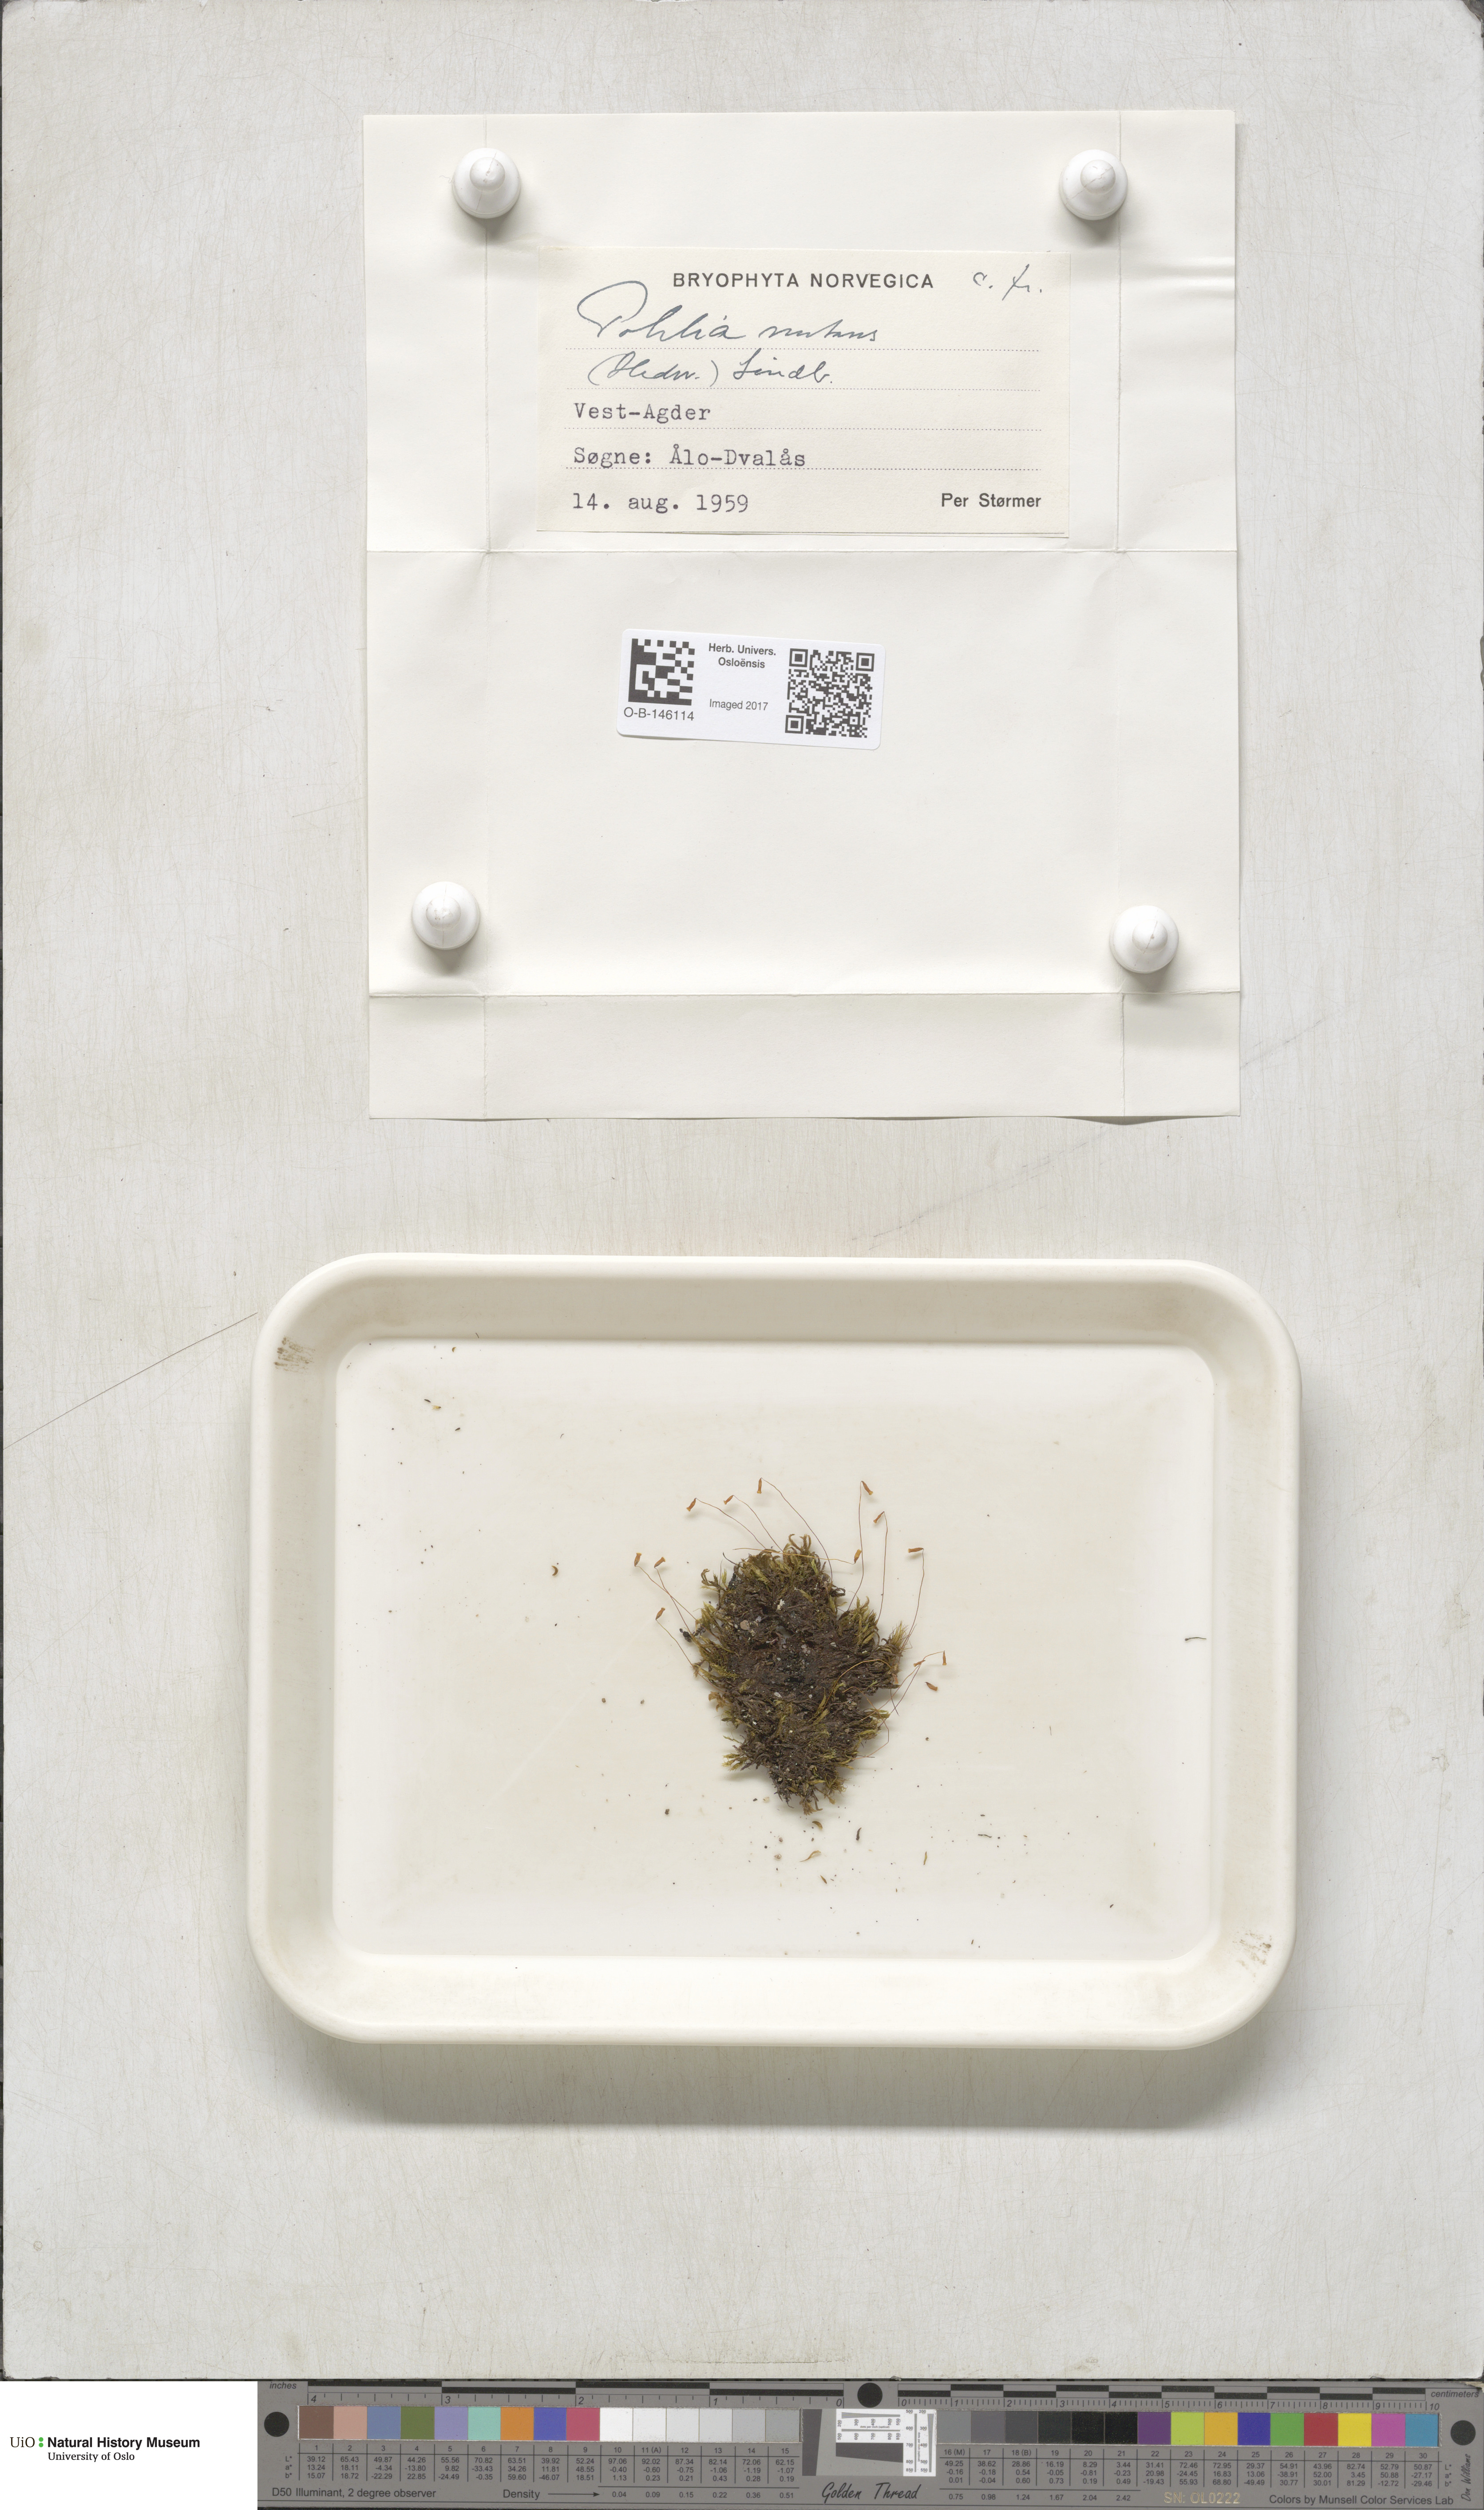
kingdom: Plantae
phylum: Bryophyta
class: Bryopsida
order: Bryales
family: Mniaceae
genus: Pohlia
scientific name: Pohlia nutans
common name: Nodding thread-moss
